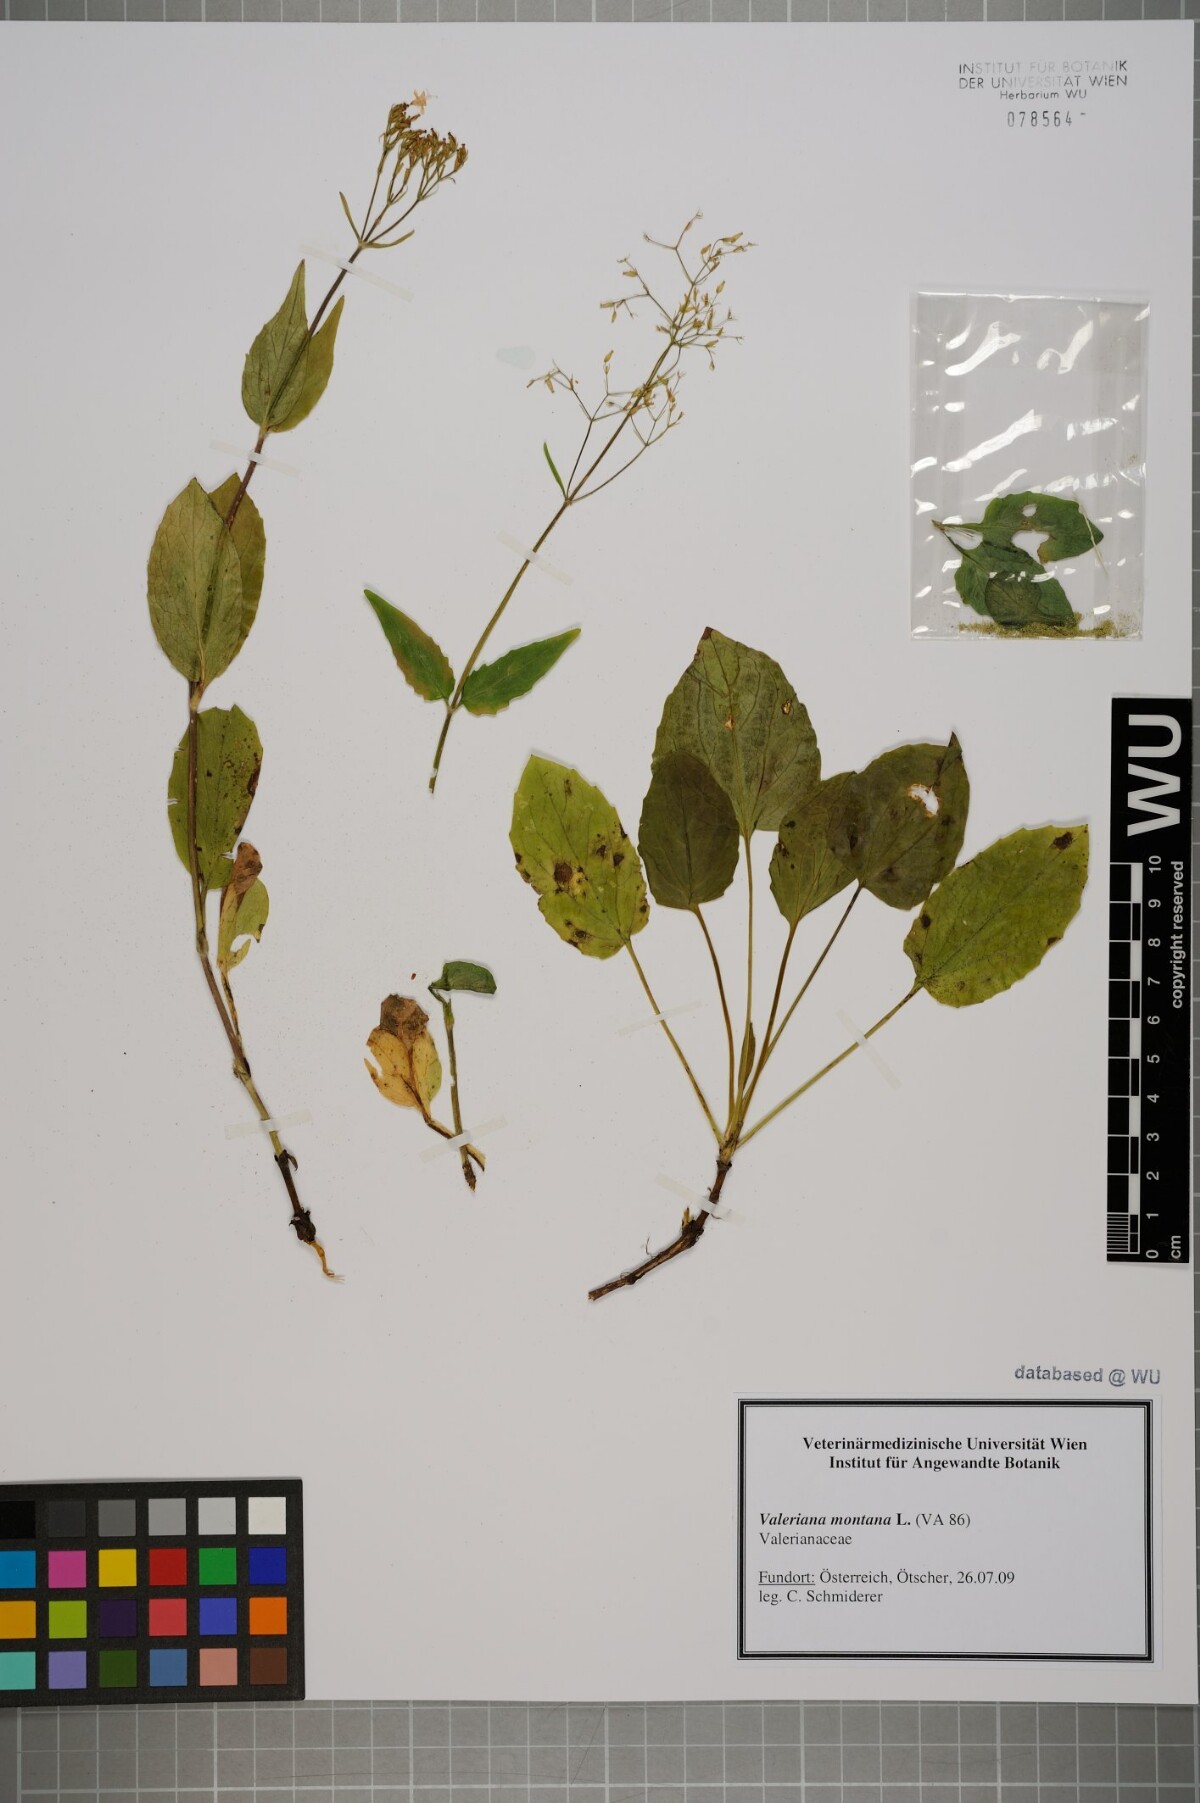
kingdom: Plantae
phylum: Tracheophyta
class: Magnoliopsida
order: Dipsacales
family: Caprifoliaceae
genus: Valeriana
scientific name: Valeriana montana
